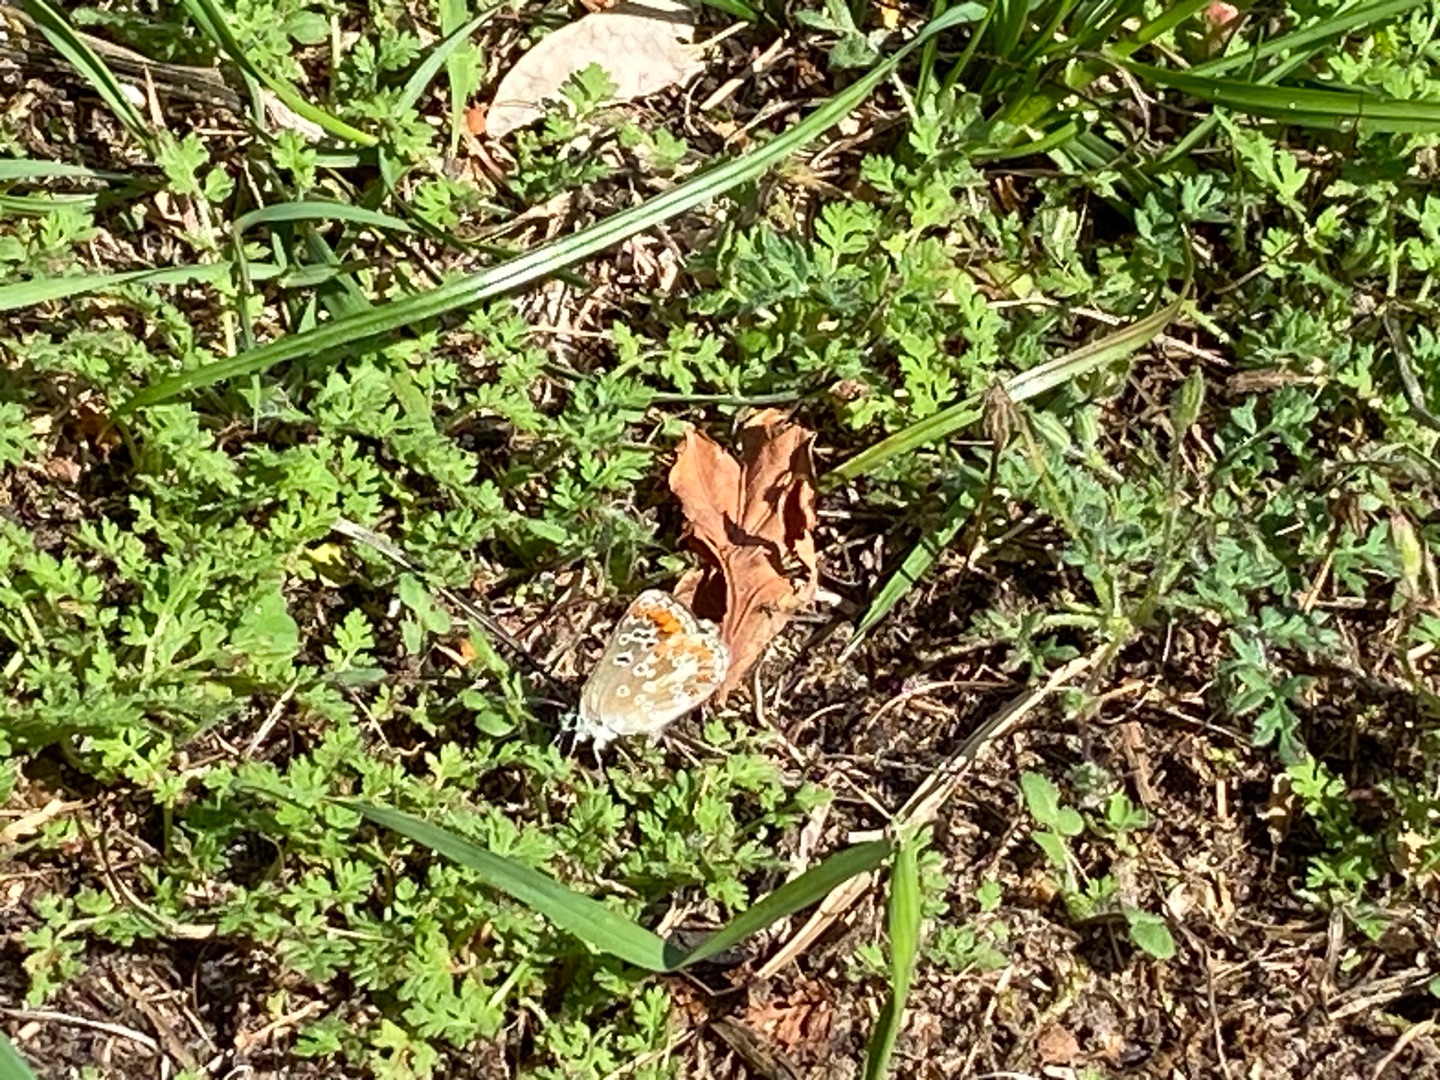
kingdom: Animalia
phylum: Arthropoda
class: Insecta
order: Lepidoptera
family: Lycaenidae
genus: Aricia
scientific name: Aricia agestis
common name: Rødplettet blåfugl
